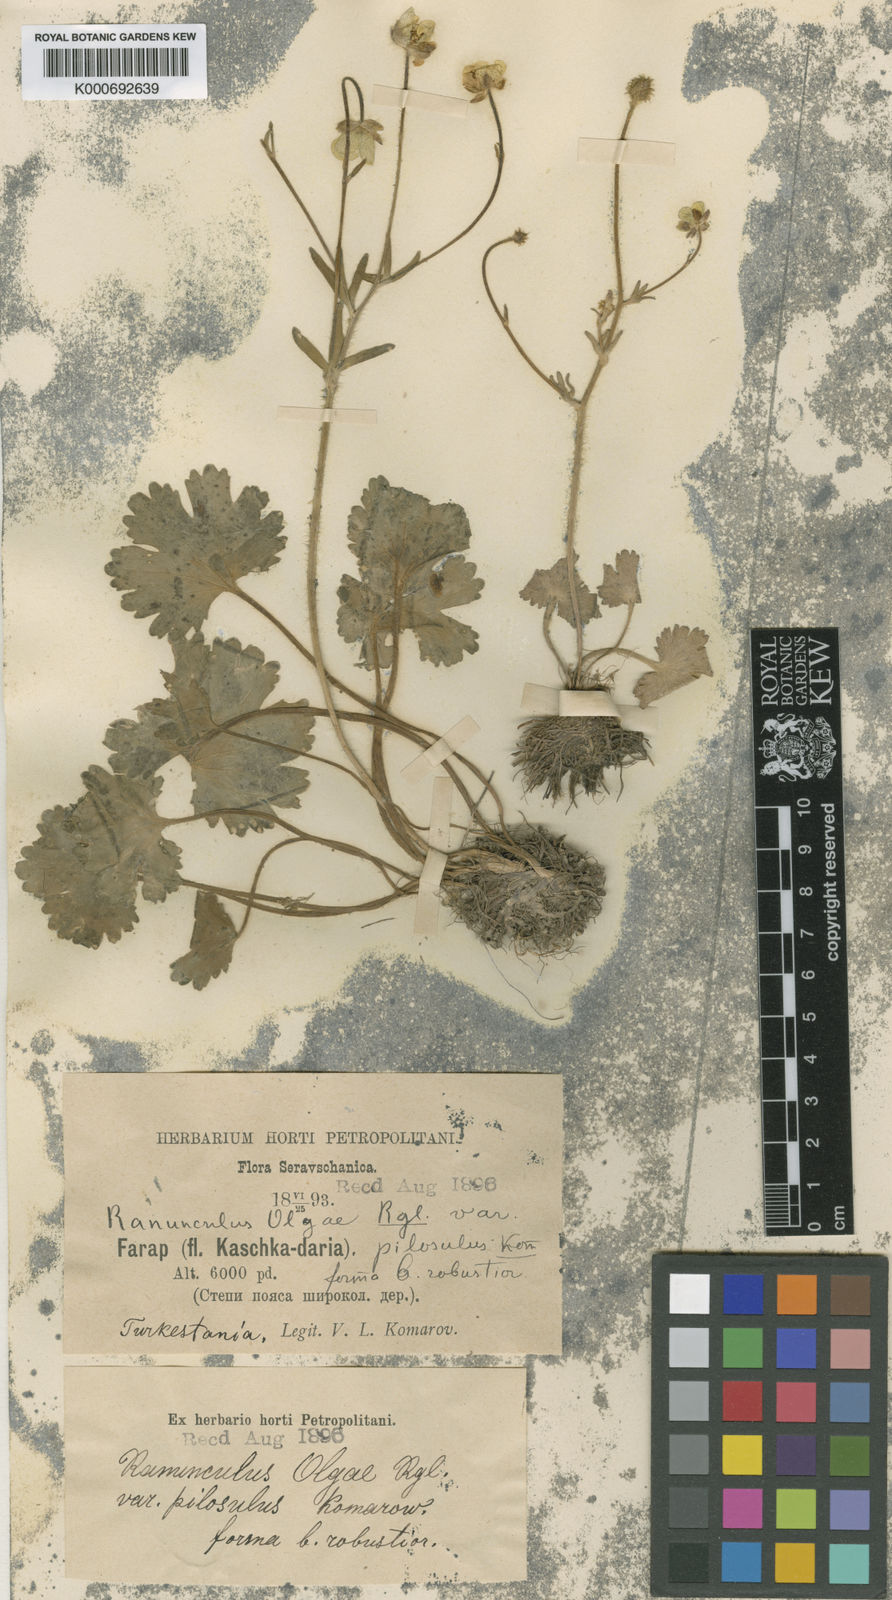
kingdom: Plantae
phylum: Tracheophyta
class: Magnoliopsida
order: Ranunculales
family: Ranunculaceae
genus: Ranunculus
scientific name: Ranunculus afghanicus
